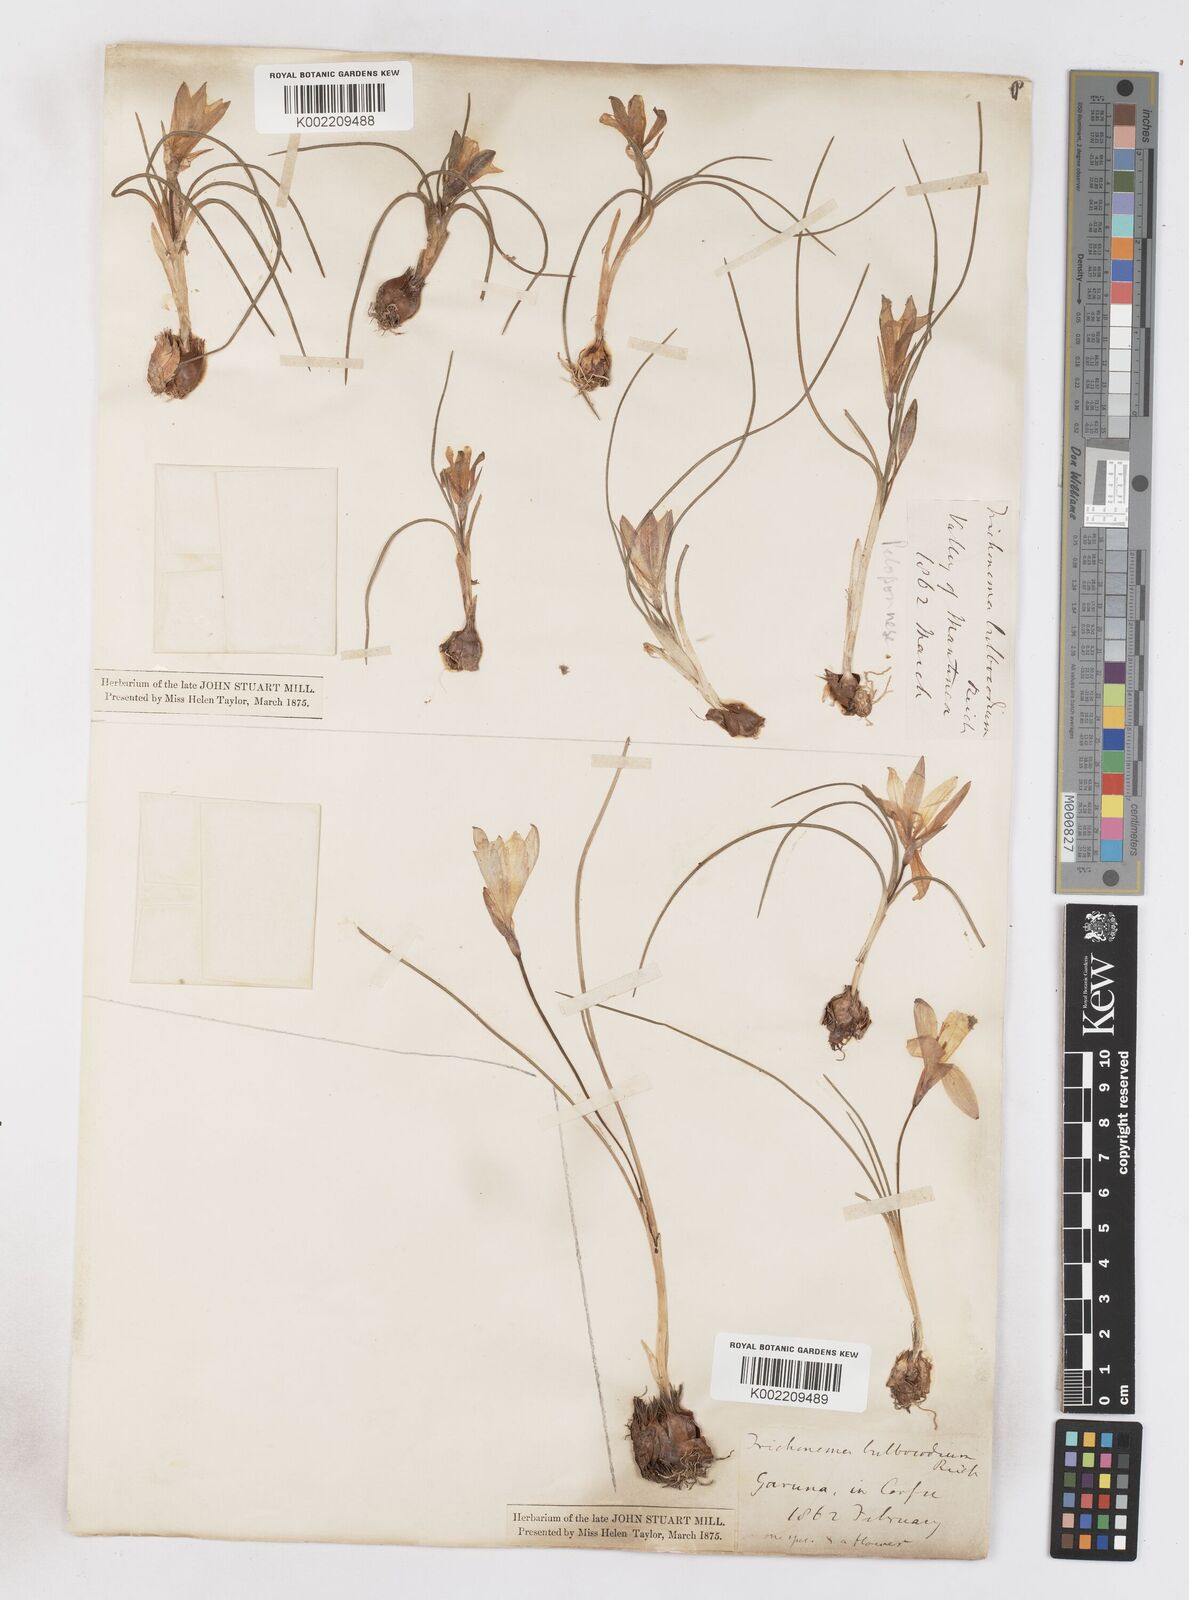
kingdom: Plantae
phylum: Tracheophyta
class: Liliopsida
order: Asparagales
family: Iridaceae
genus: Romulea
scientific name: Romulea bulbocodium
